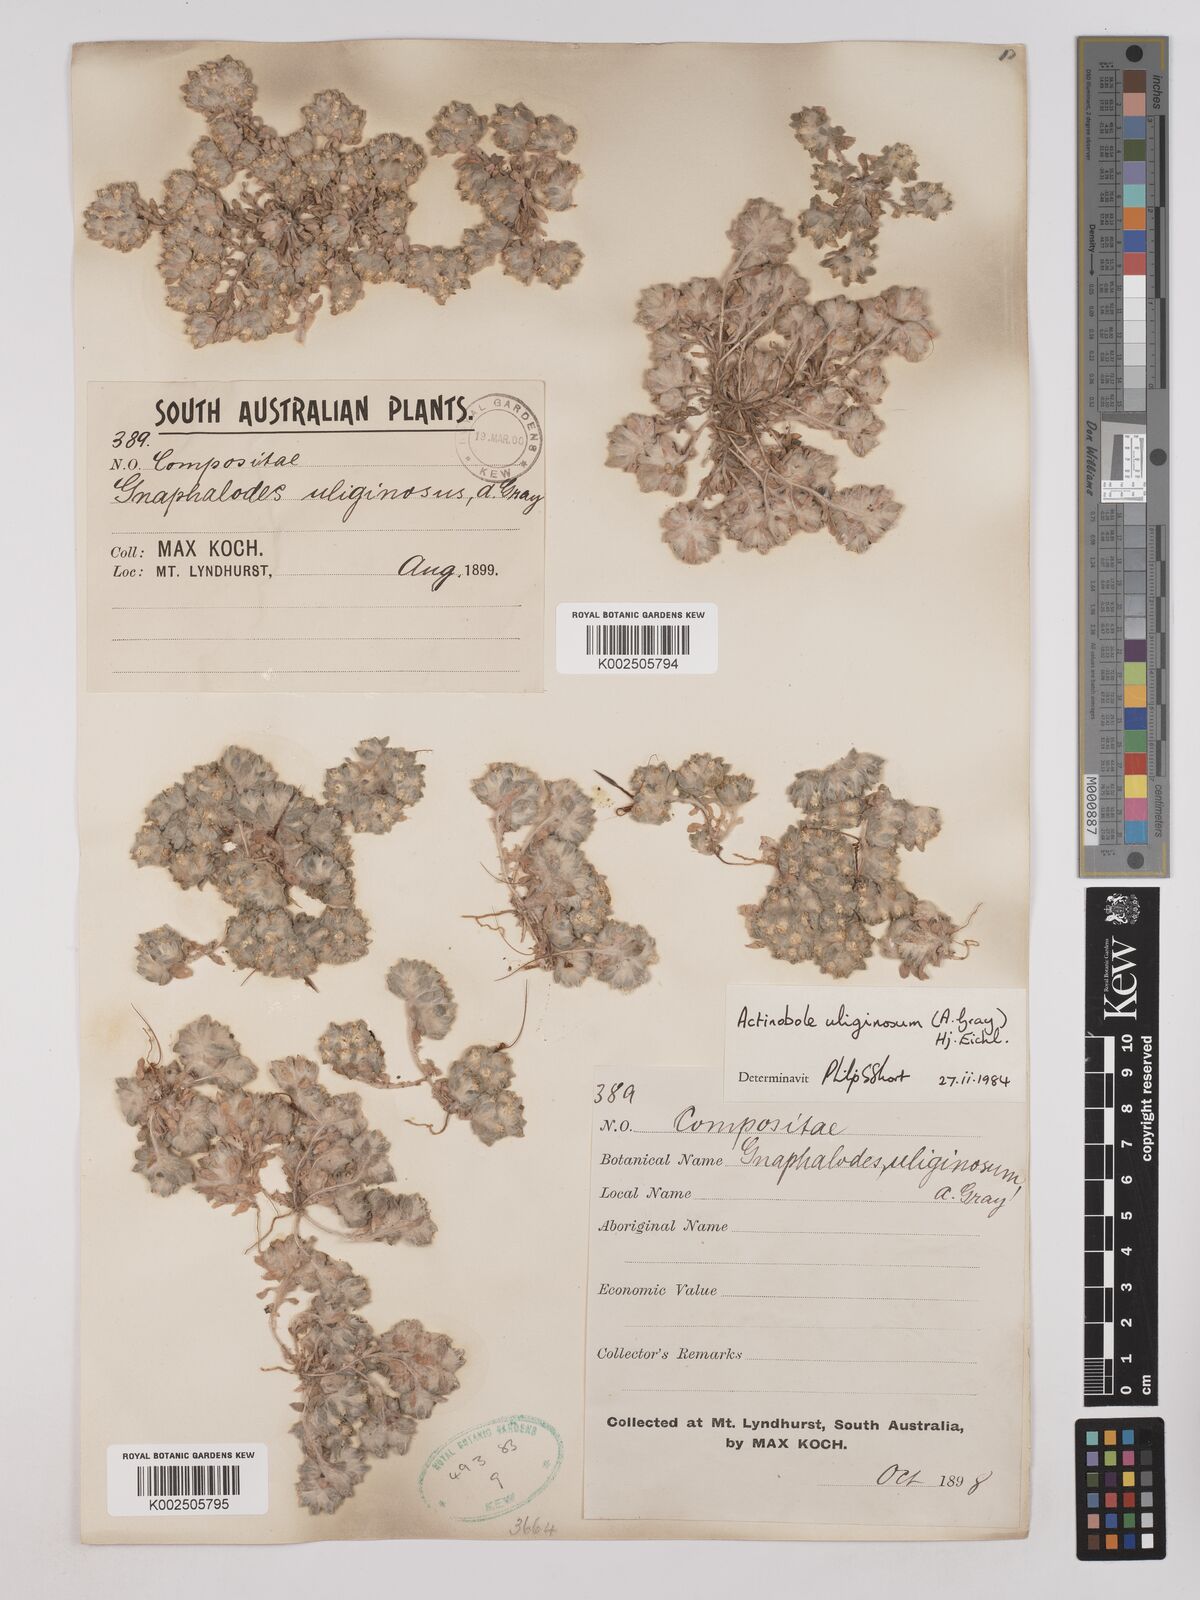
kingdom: Plantae
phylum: Tracheophyta
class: Magnoliopsida
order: Asterales
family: Asteraceae
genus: Actinobole
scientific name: Actinobole uliginosum
